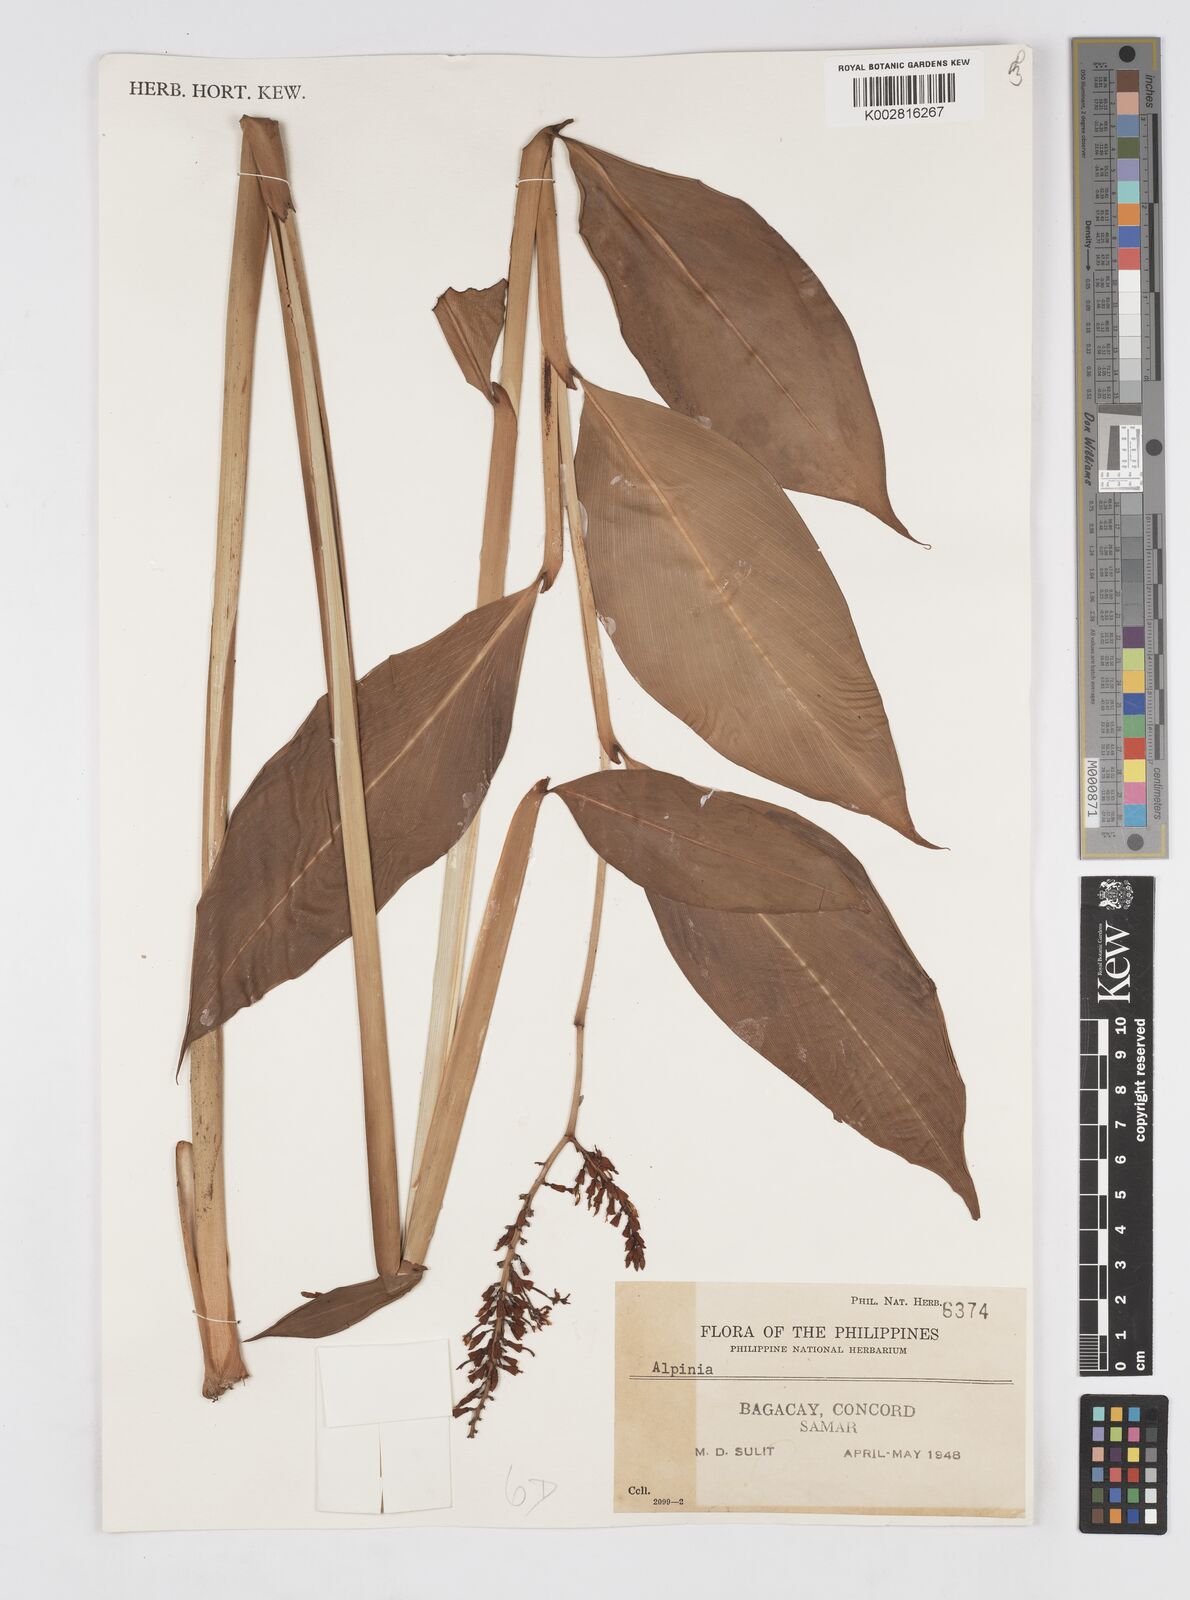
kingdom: Plantae
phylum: Tracheophyta
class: Liliopsida
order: Zingiberales
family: Zingiberaceae
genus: Alpinia
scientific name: Alpinia
